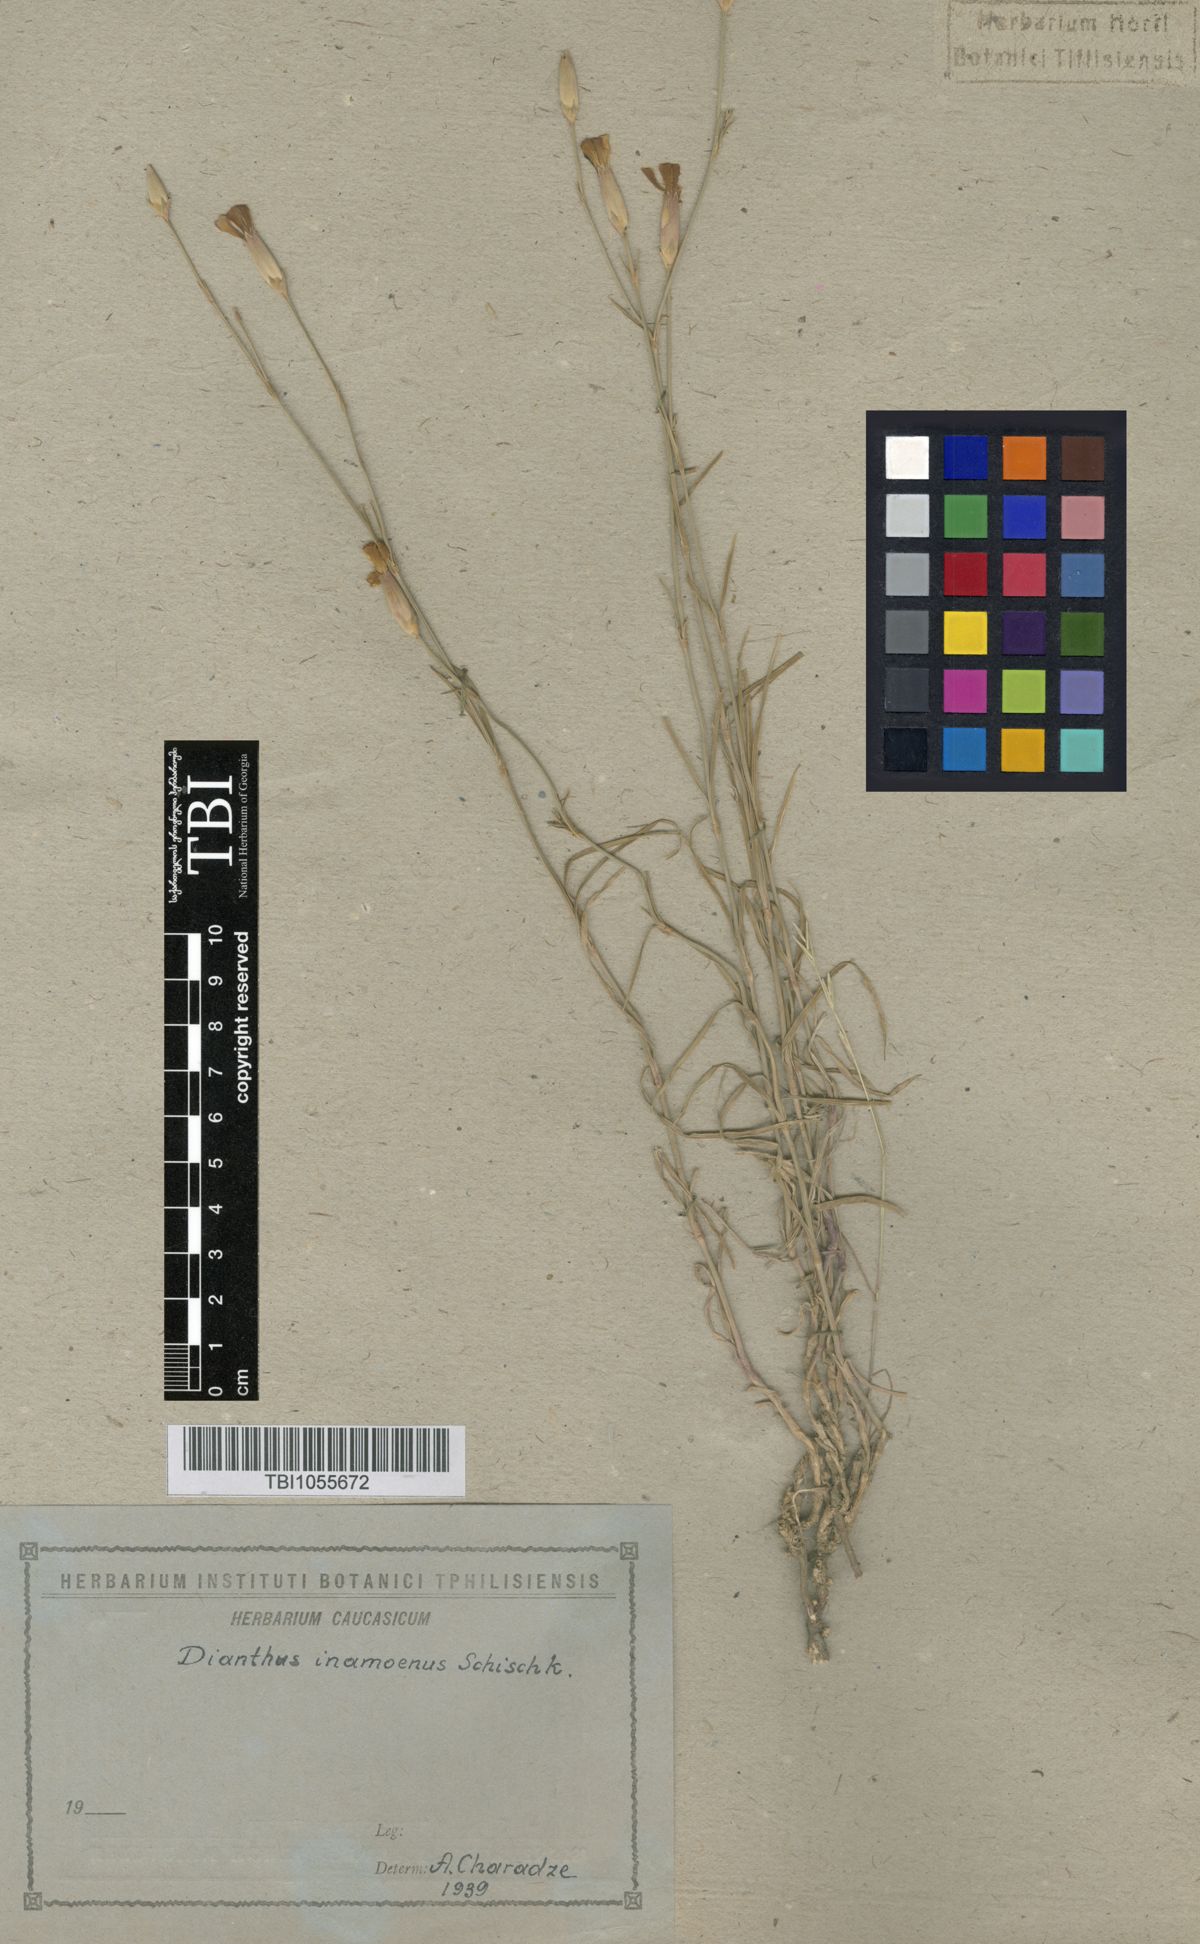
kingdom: Plantae
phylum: Tracheophyta
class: Magnoliopsida
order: Caryophyllales
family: Caryophyllaceae
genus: Dianthus
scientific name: Dianthus inamoenus
